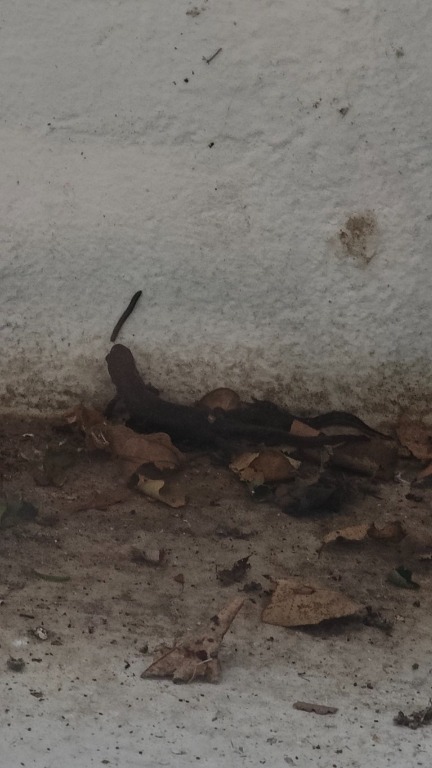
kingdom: Animalia
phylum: Chordata
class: Amphibia
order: Caudata
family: Salamandridae
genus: Triturus
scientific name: Triturus cristatus
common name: Stor vandsalamander
